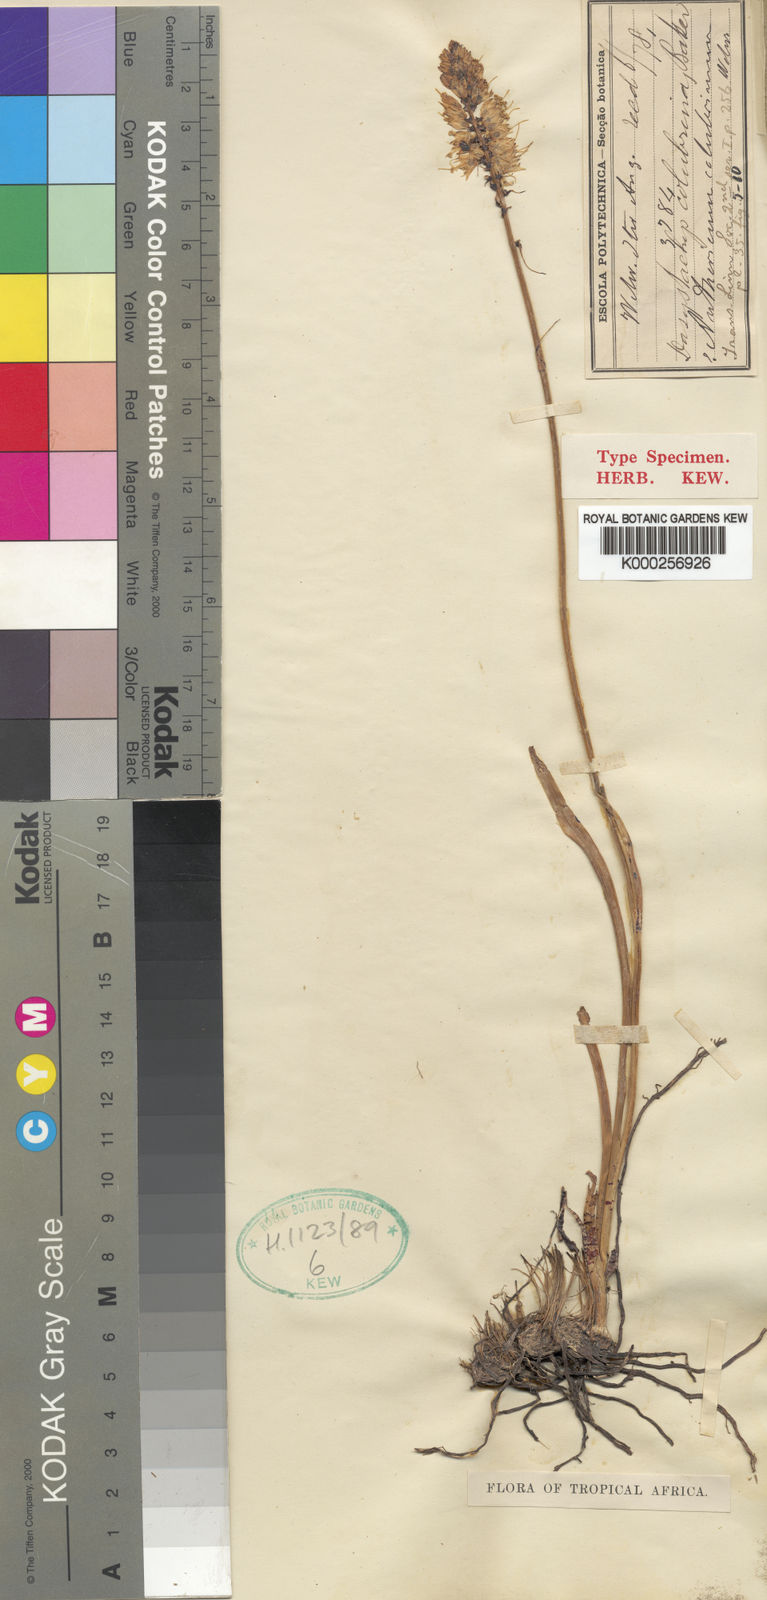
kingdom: Plantae
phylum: Tracheophyta
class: Liliopsida
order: Asparagales
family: Asparagaceae
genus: Chlorophytum
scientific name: Chlorophytum colubrinum
